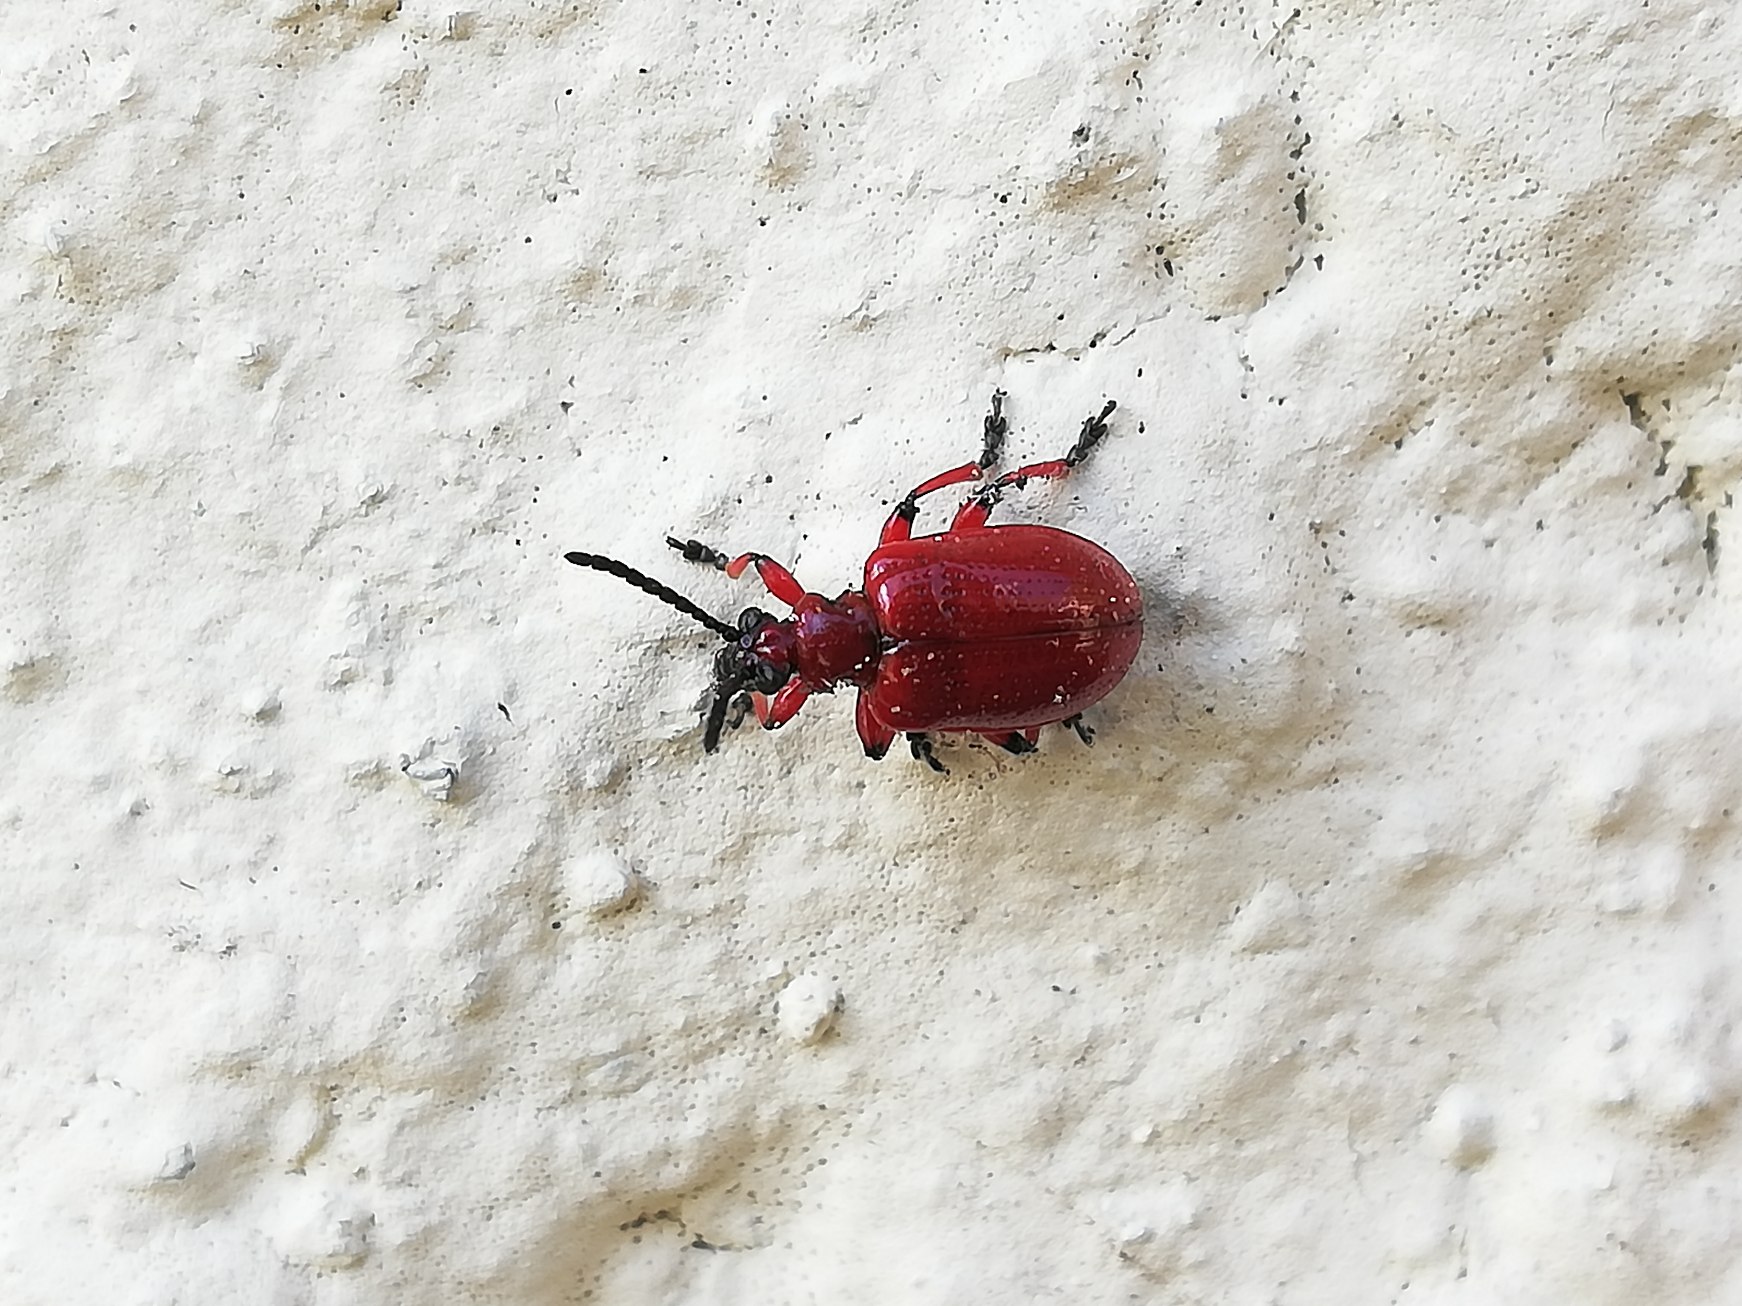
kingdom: Animalia
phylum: Arthropoda
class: Insecta
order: Coleoptera
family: Chrysomelidae
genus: Lilioceris
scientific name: Lilioceris merdigera
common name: Konvalbille
